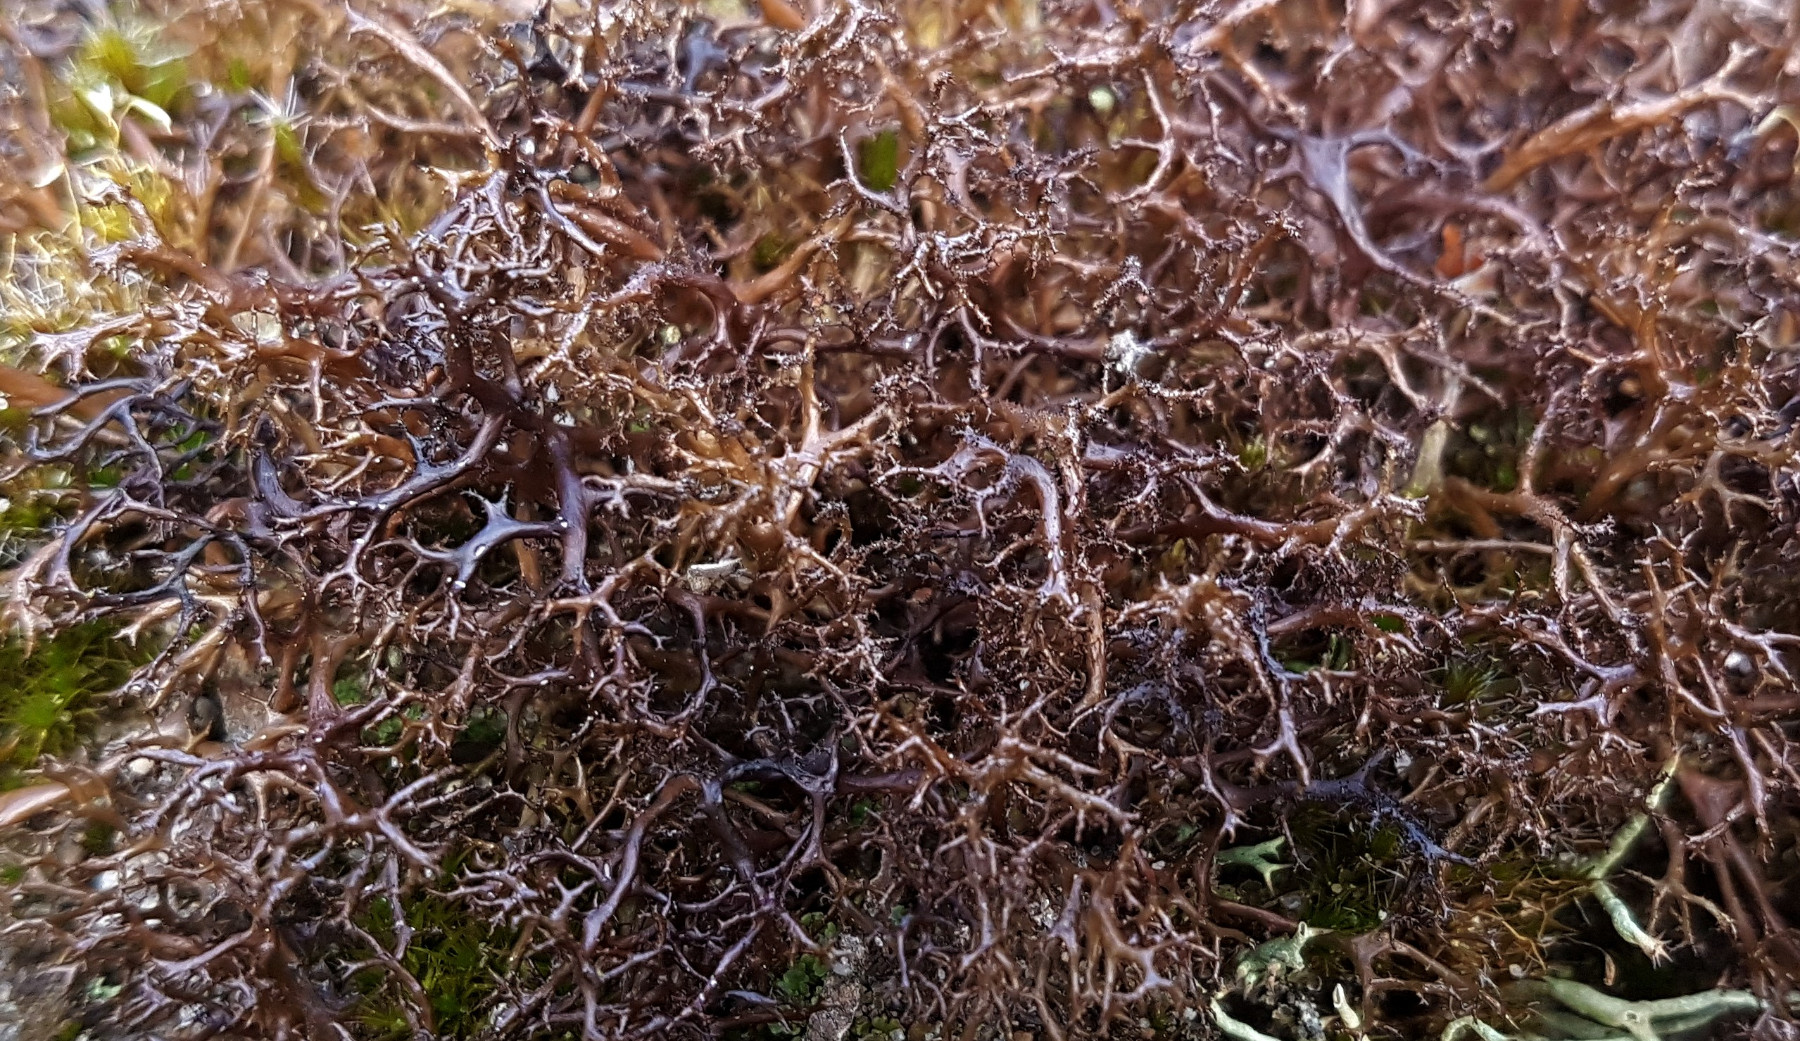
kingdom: Fungi
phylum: Ascomycota
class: Lecanoromycetes
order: Lecanorales
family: Parmeliaceae
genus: Cetraria
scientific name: Cetraria aculeata
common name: grubet tjørnelav
